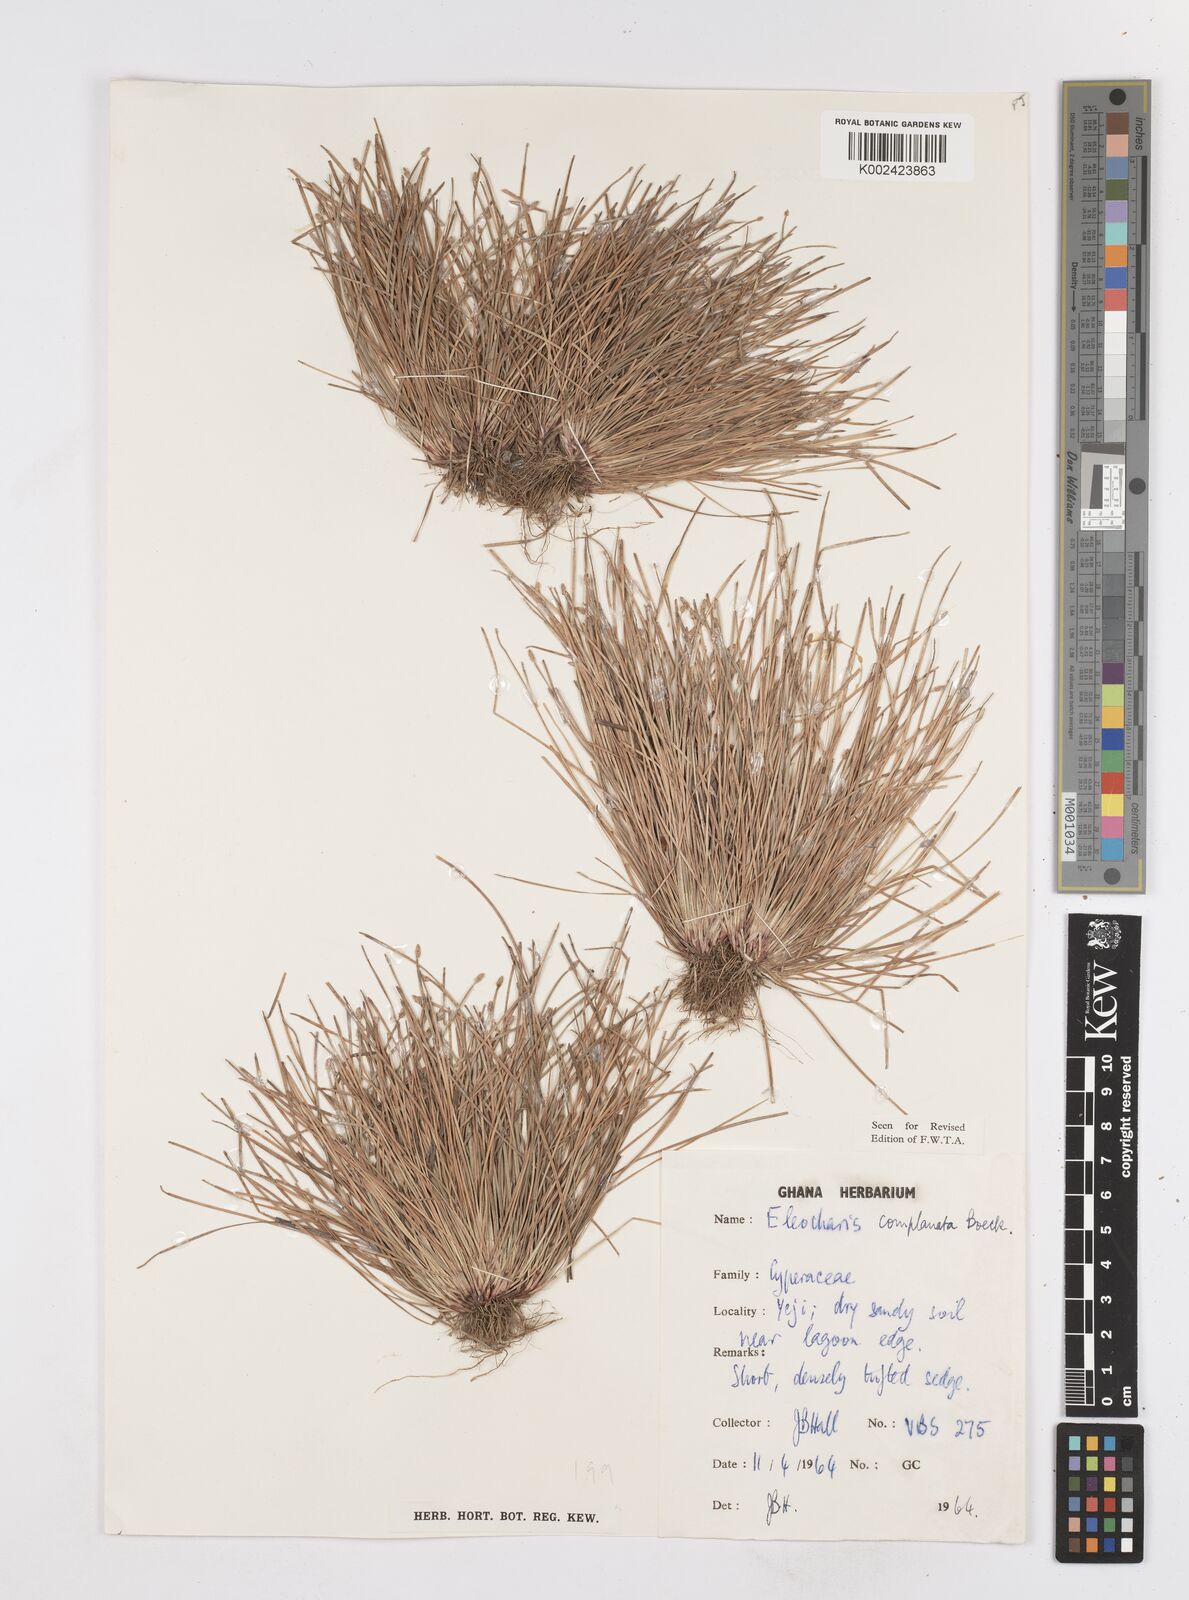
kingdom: Plantae
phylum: Tracheophyta
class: Liliopsida
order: Poales
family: Cyperaceae
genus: Eleocharis
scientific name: Eleocharis complanata
